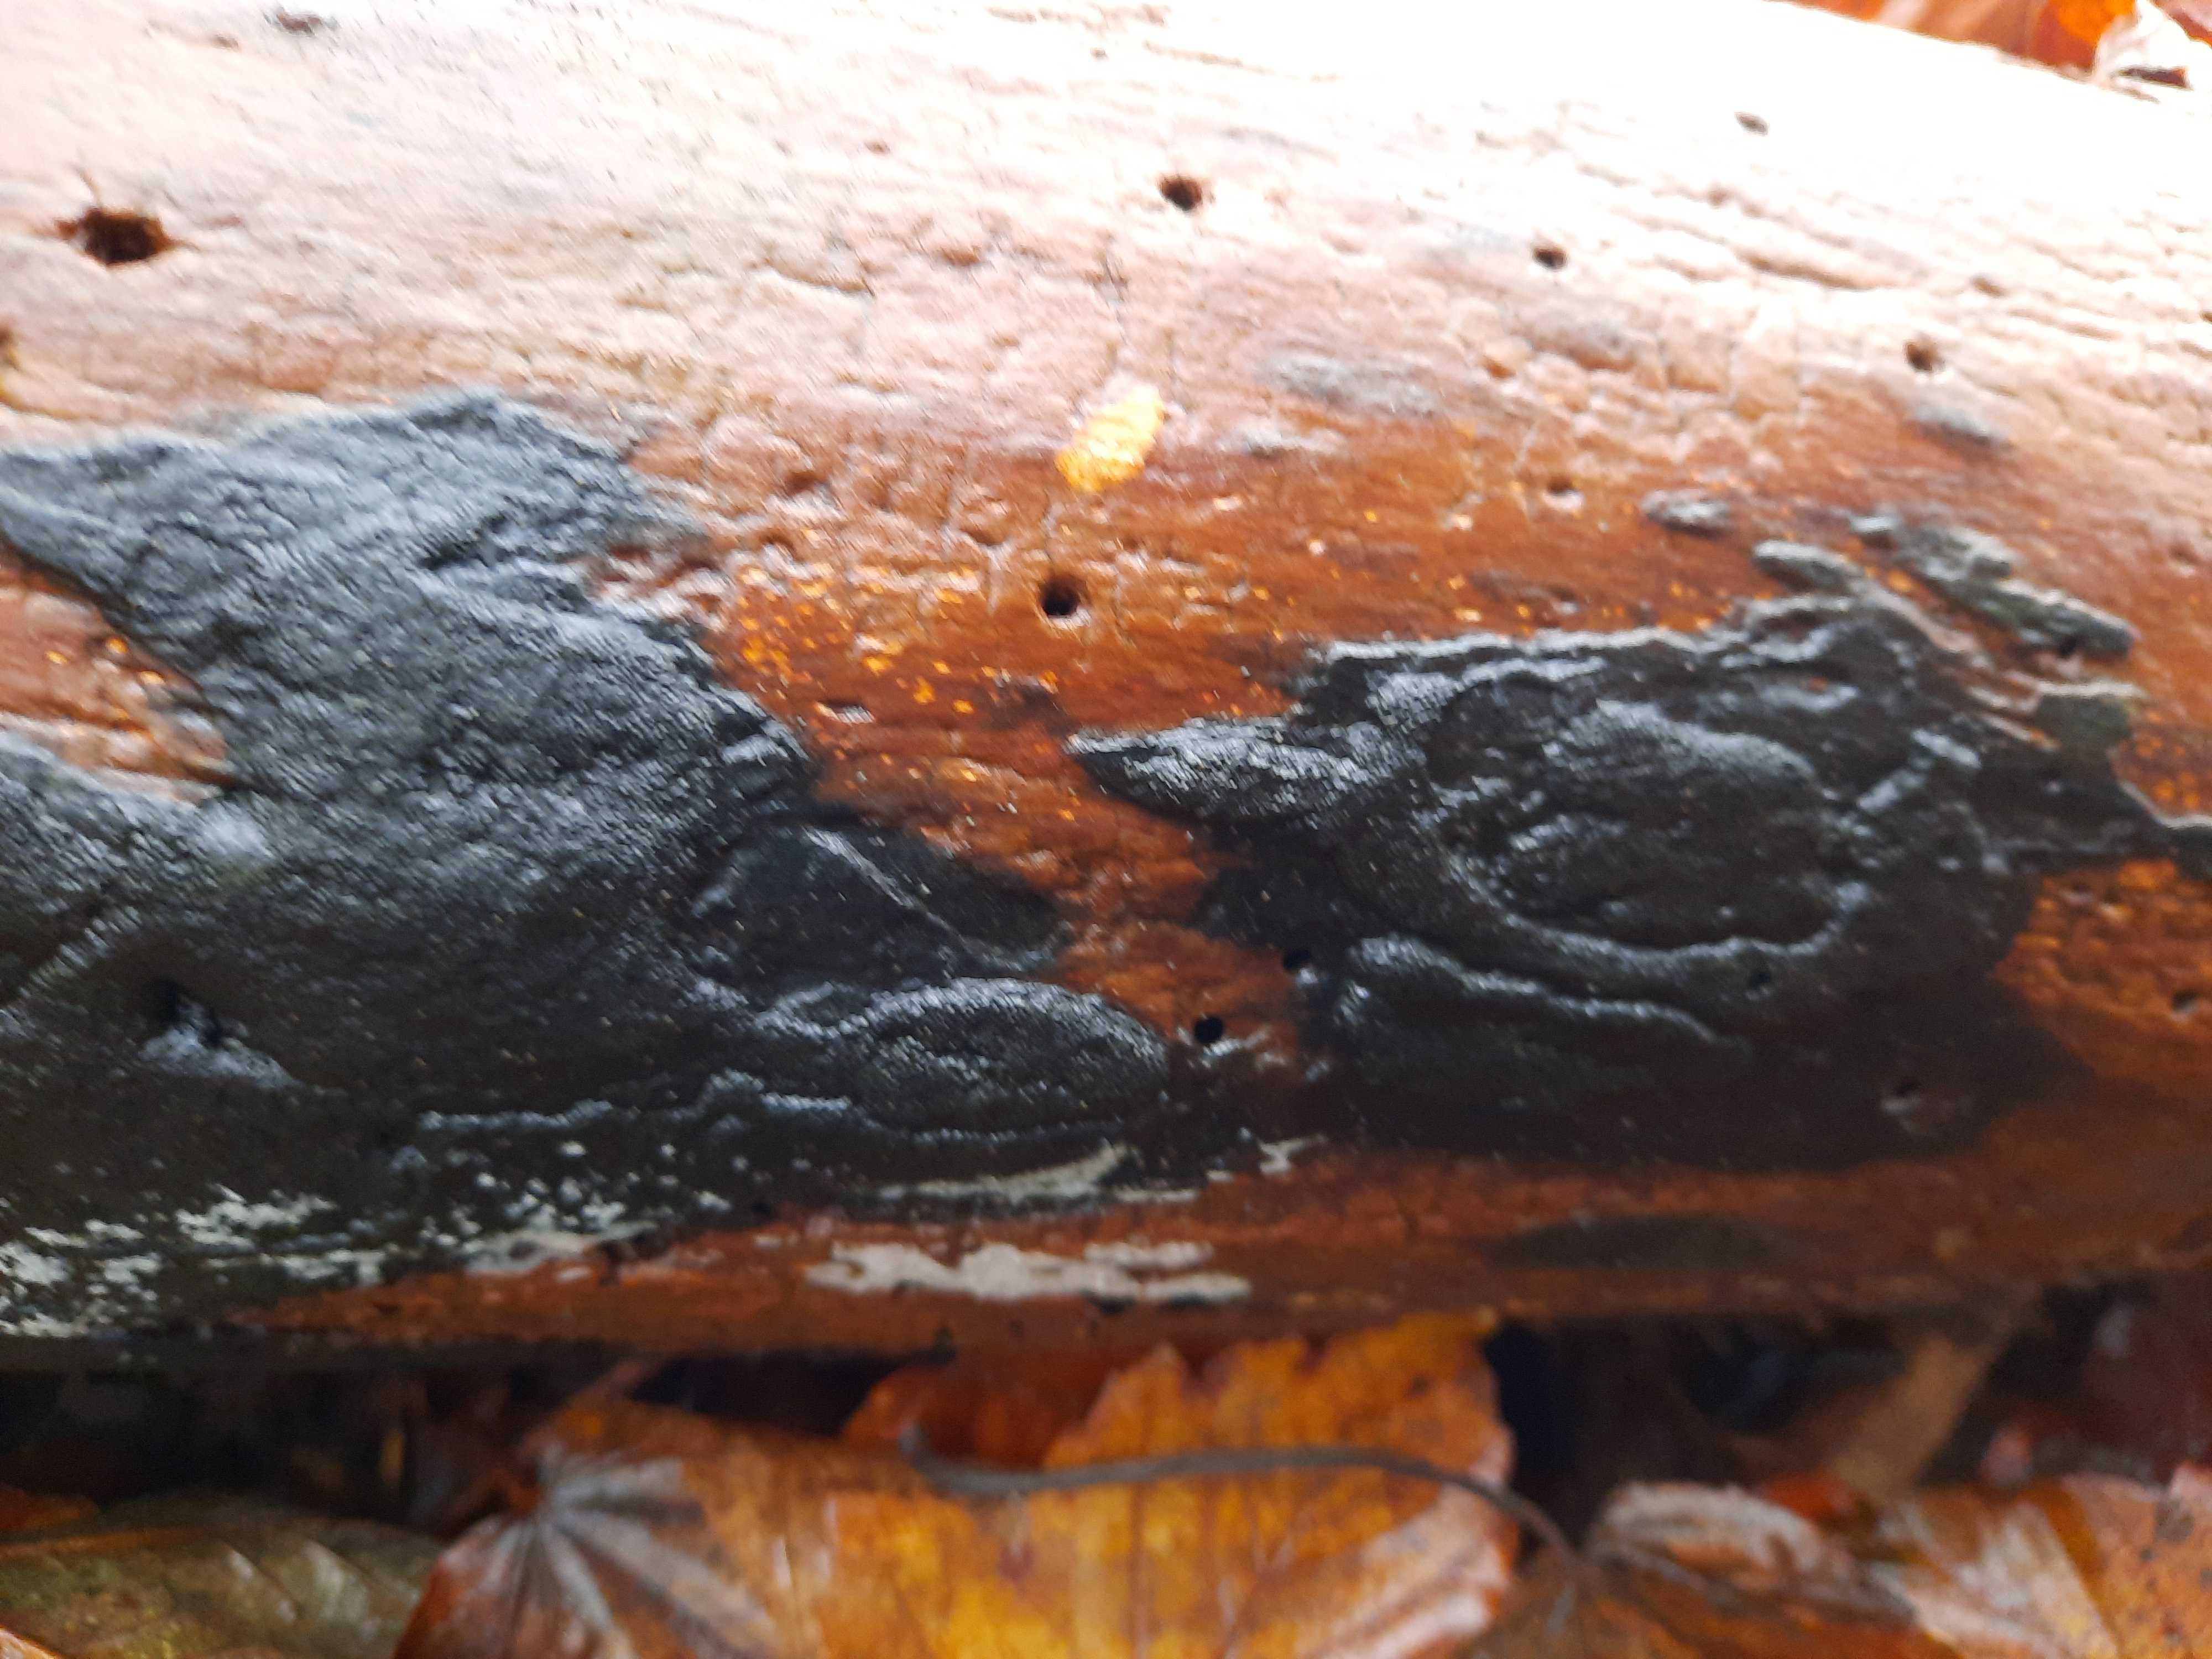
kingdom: Fungi
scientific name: Fungi
